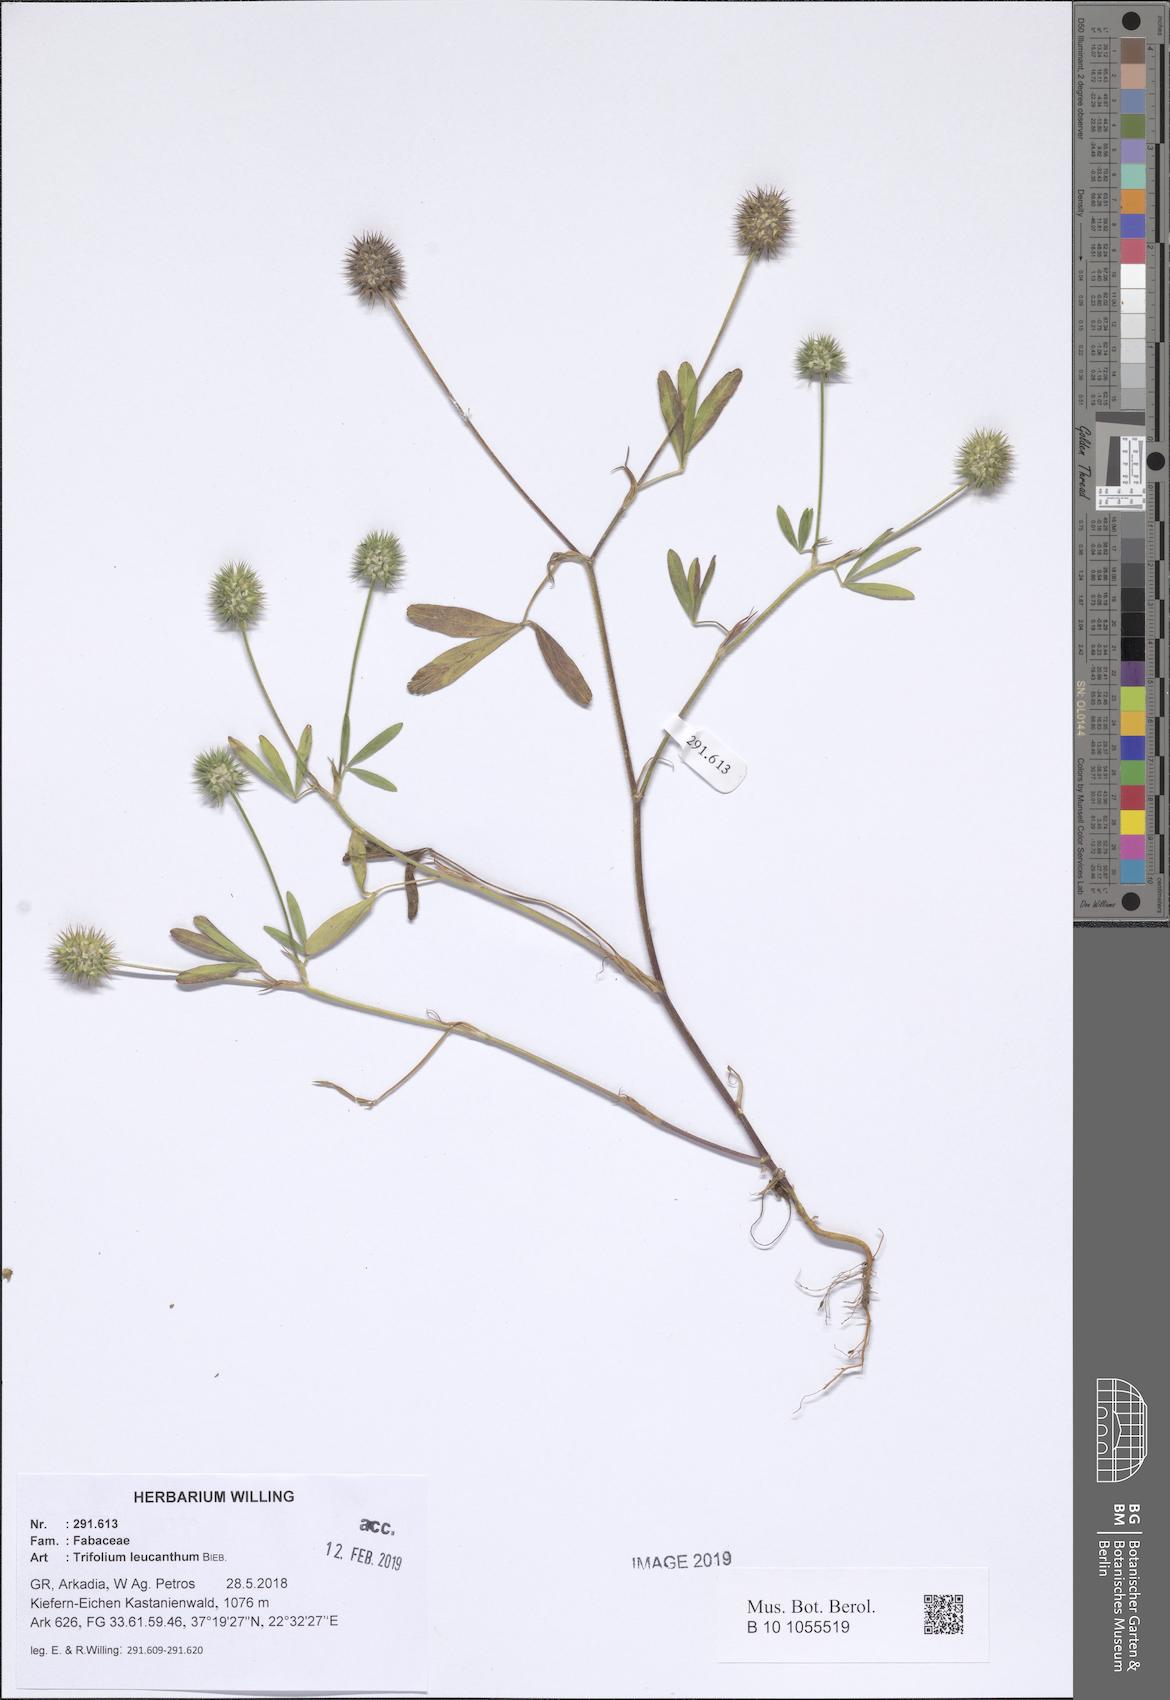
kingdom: Plantae
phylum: Tracheophyta
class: Magnoliopsida
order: Fabales
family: Fabaceae
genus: Trifolium
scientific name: Trifolium leucanthum
